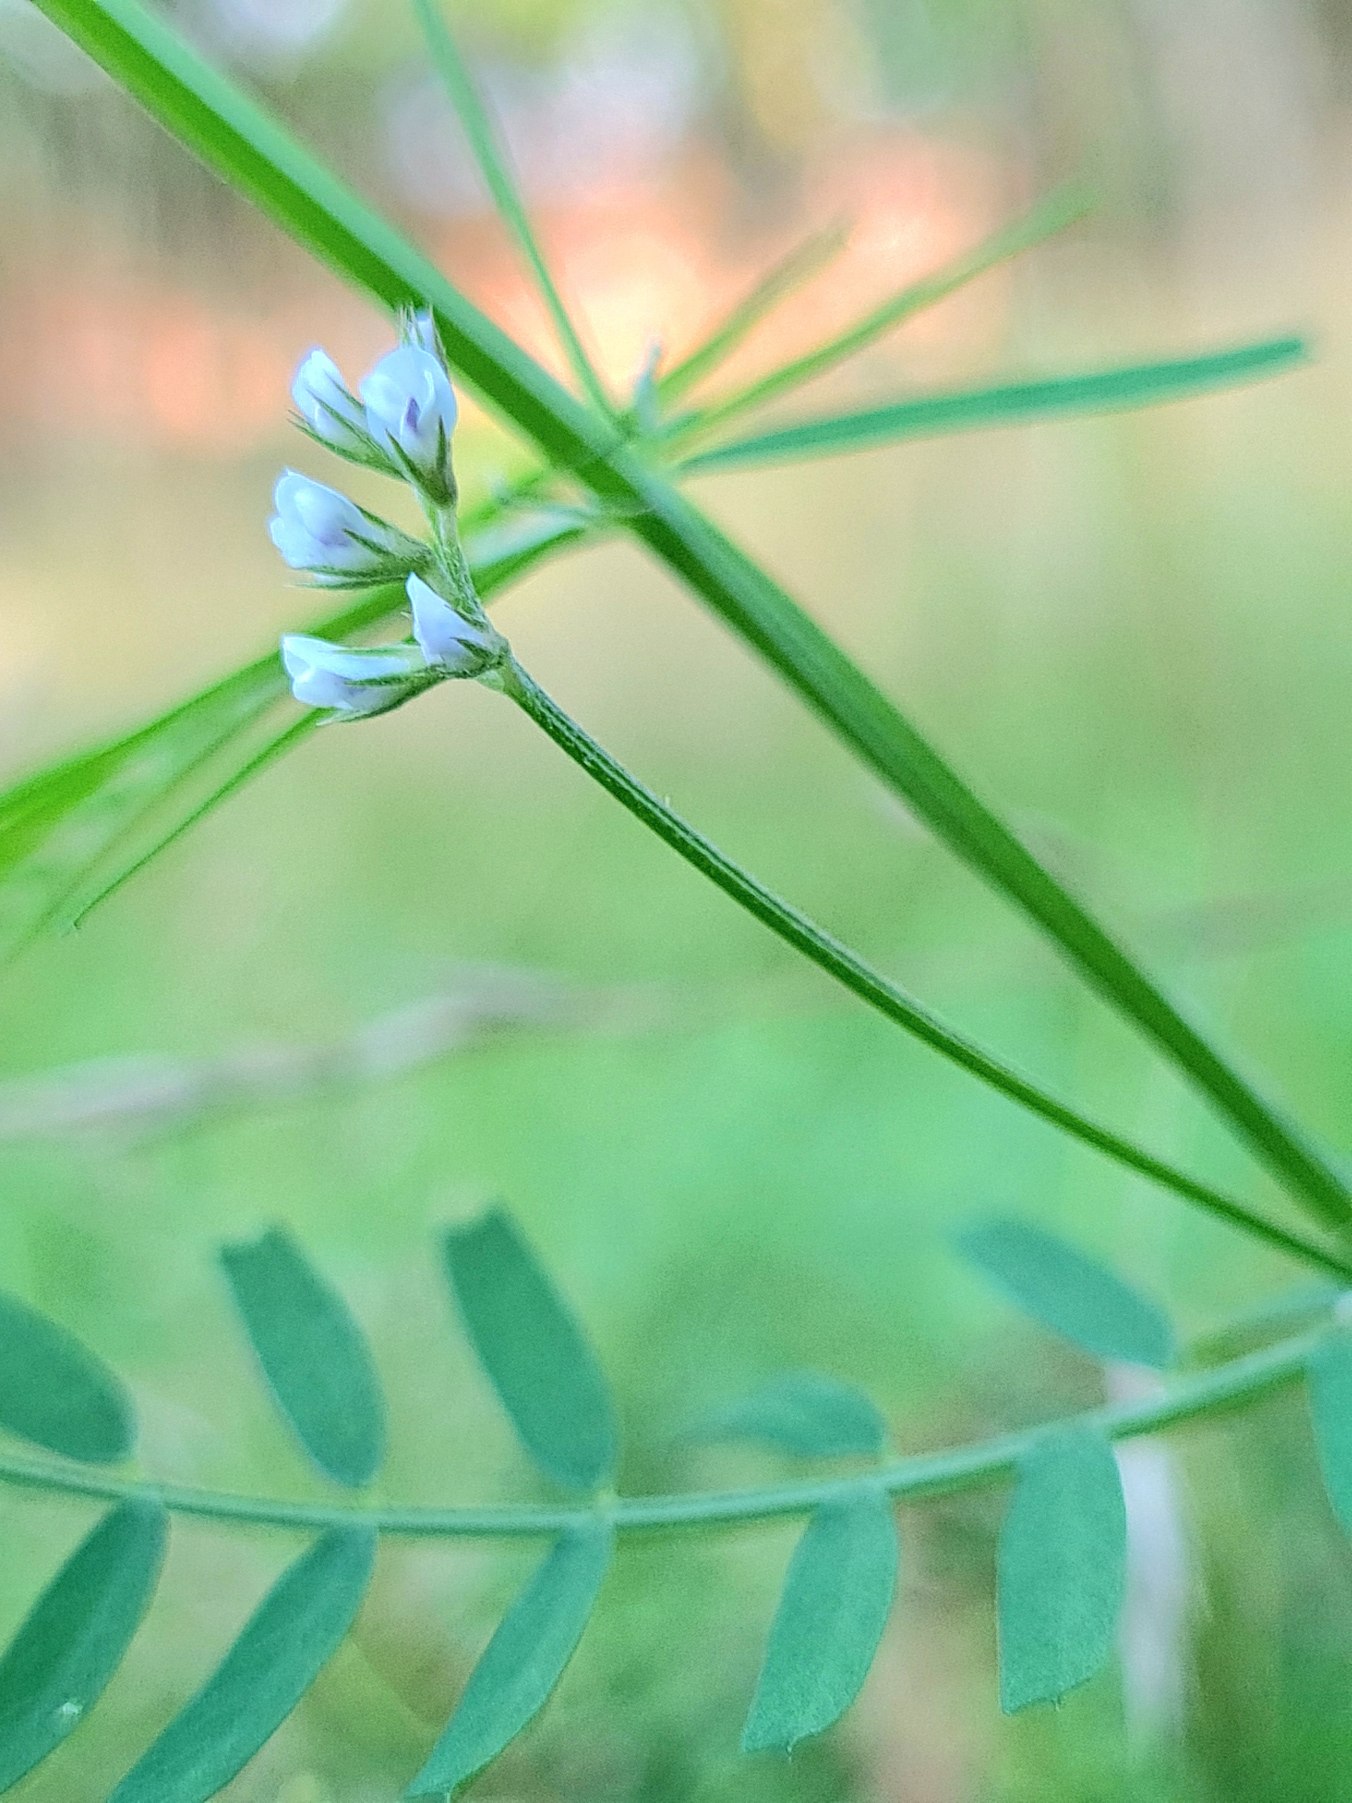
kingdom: Plantae
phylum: Tracheophyta
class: Magnoliopsida
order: Fabales
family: Fabaceae
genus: Vicia
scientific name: Vicia hirsuta
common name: Tofrøet vikke
